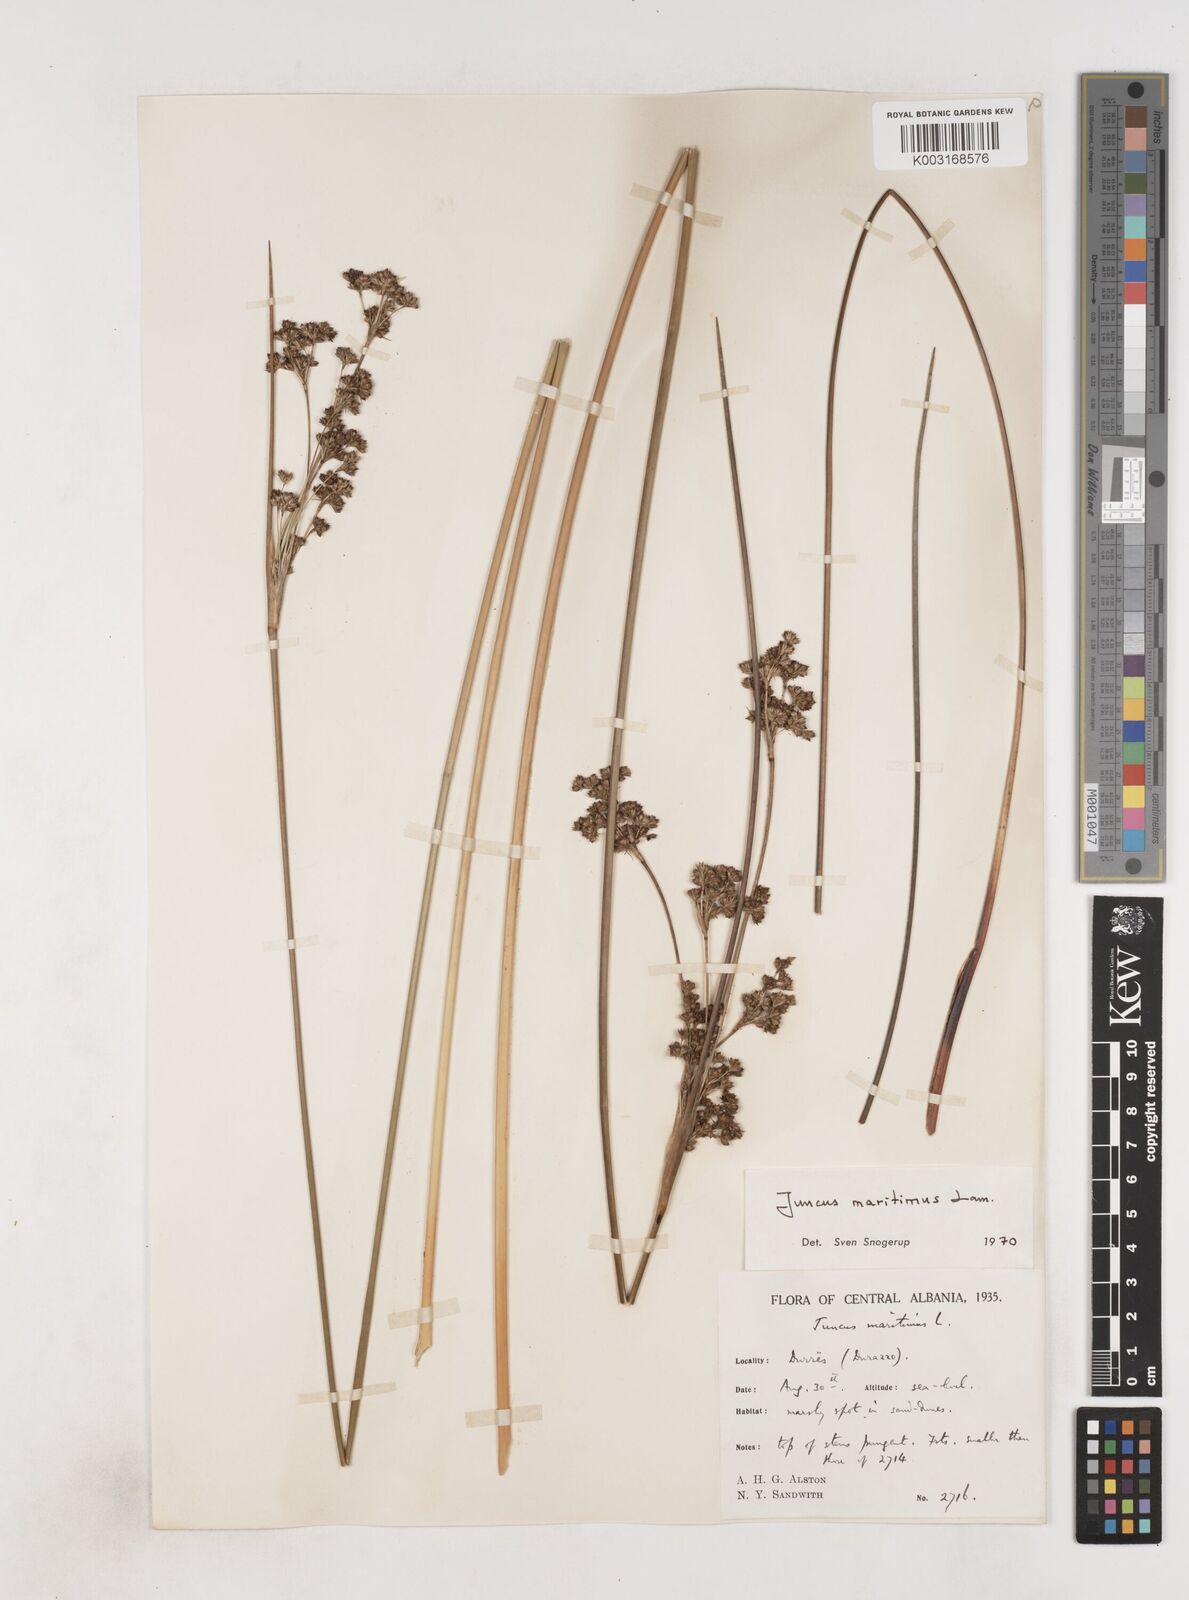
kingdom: Plantae
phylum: Tracheophyta
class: Liliopsida
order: Poales
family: Juncaceae
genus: Juncus
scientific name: Juncus maritimus
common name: Sea rush
